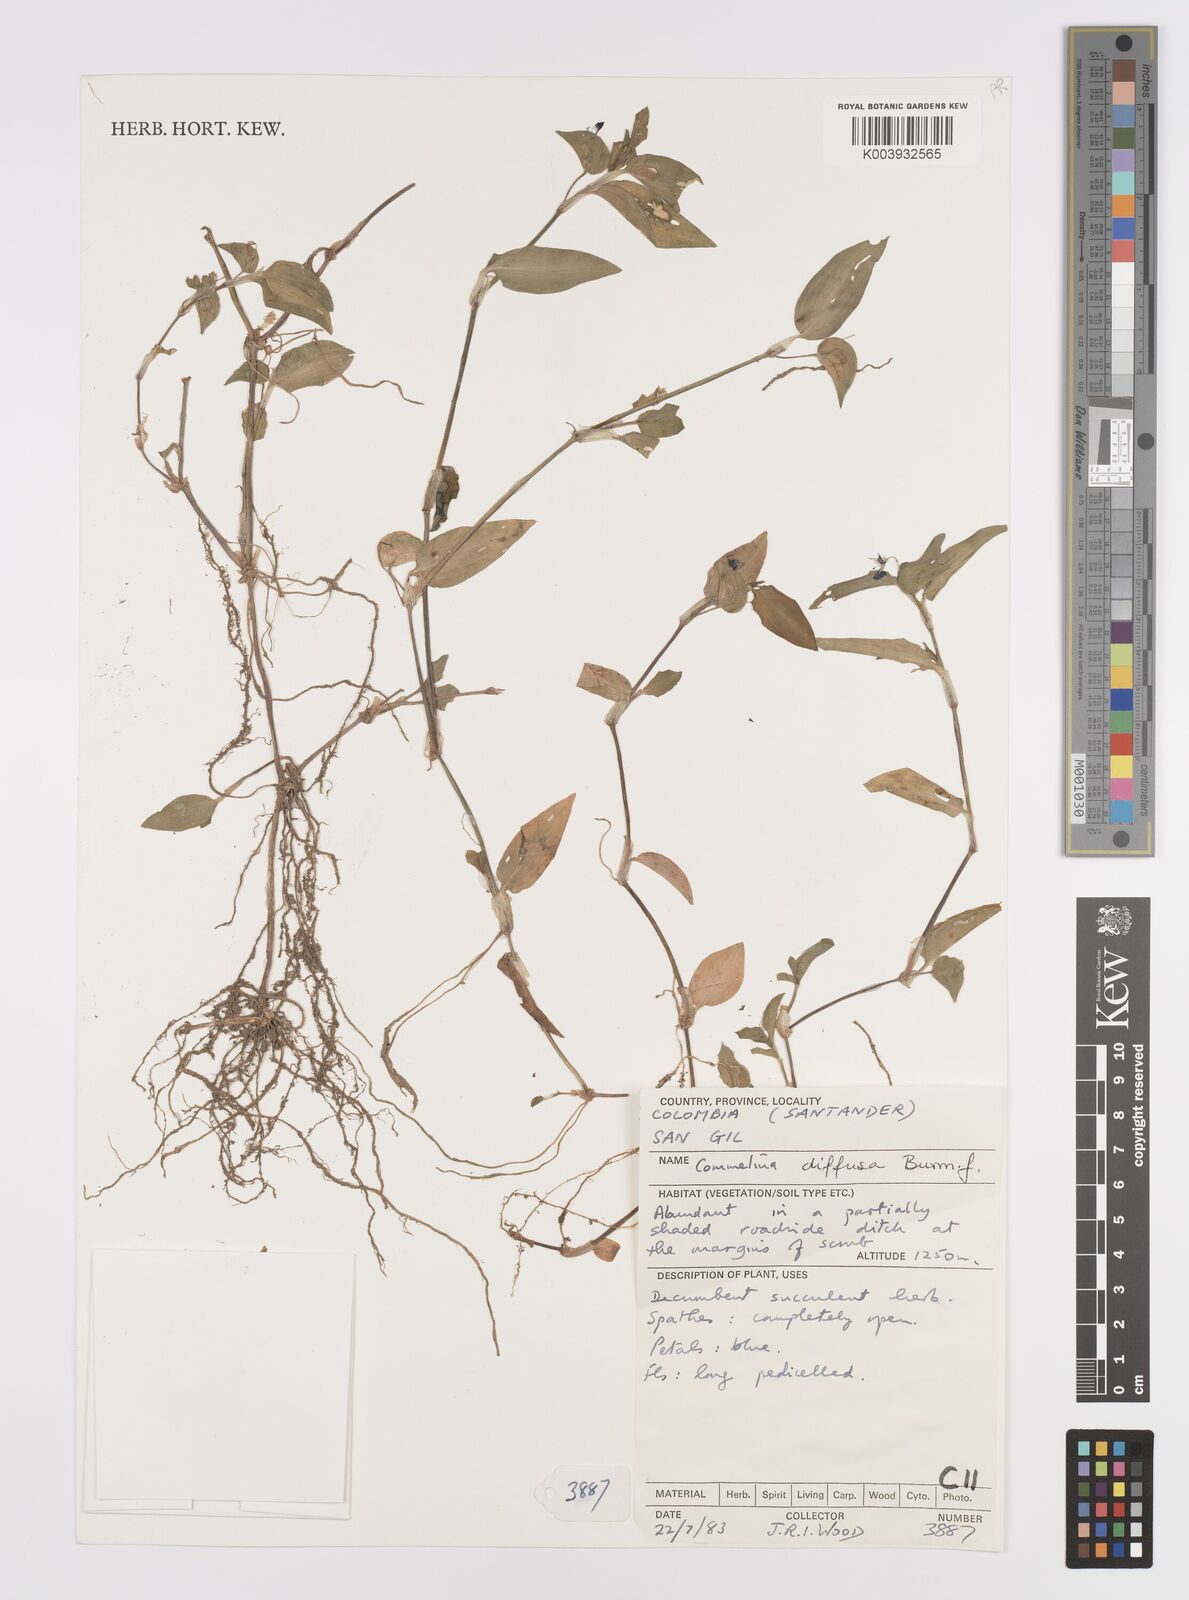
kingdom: Plantae
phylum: Tracheophyta
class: Liliopsida
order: Commelinales
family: Commelinaceae
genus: Commelina
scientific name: Commelina diffusa
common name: Climbing dayflower
